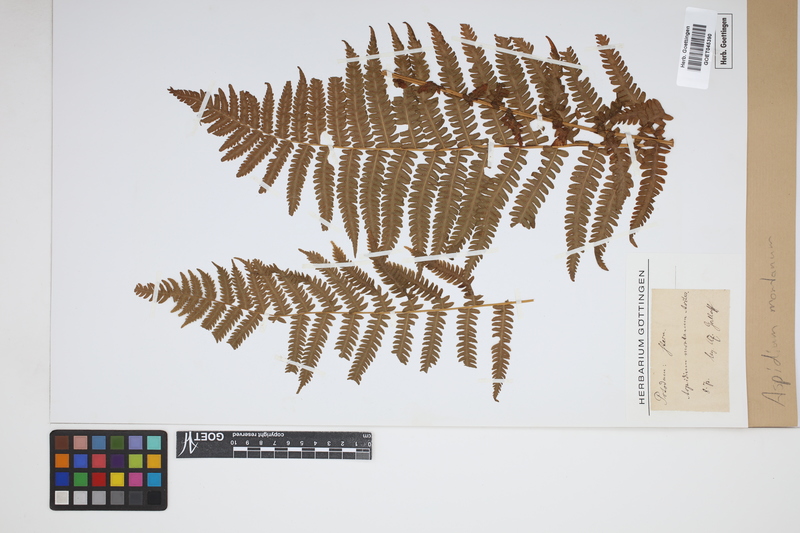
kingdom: Plantae
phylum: Tracheophyta
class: Polypodiopsida
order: Polypodiales
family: Cystopteridaceae
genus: Cystopteris
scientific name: Cystopteris montana
